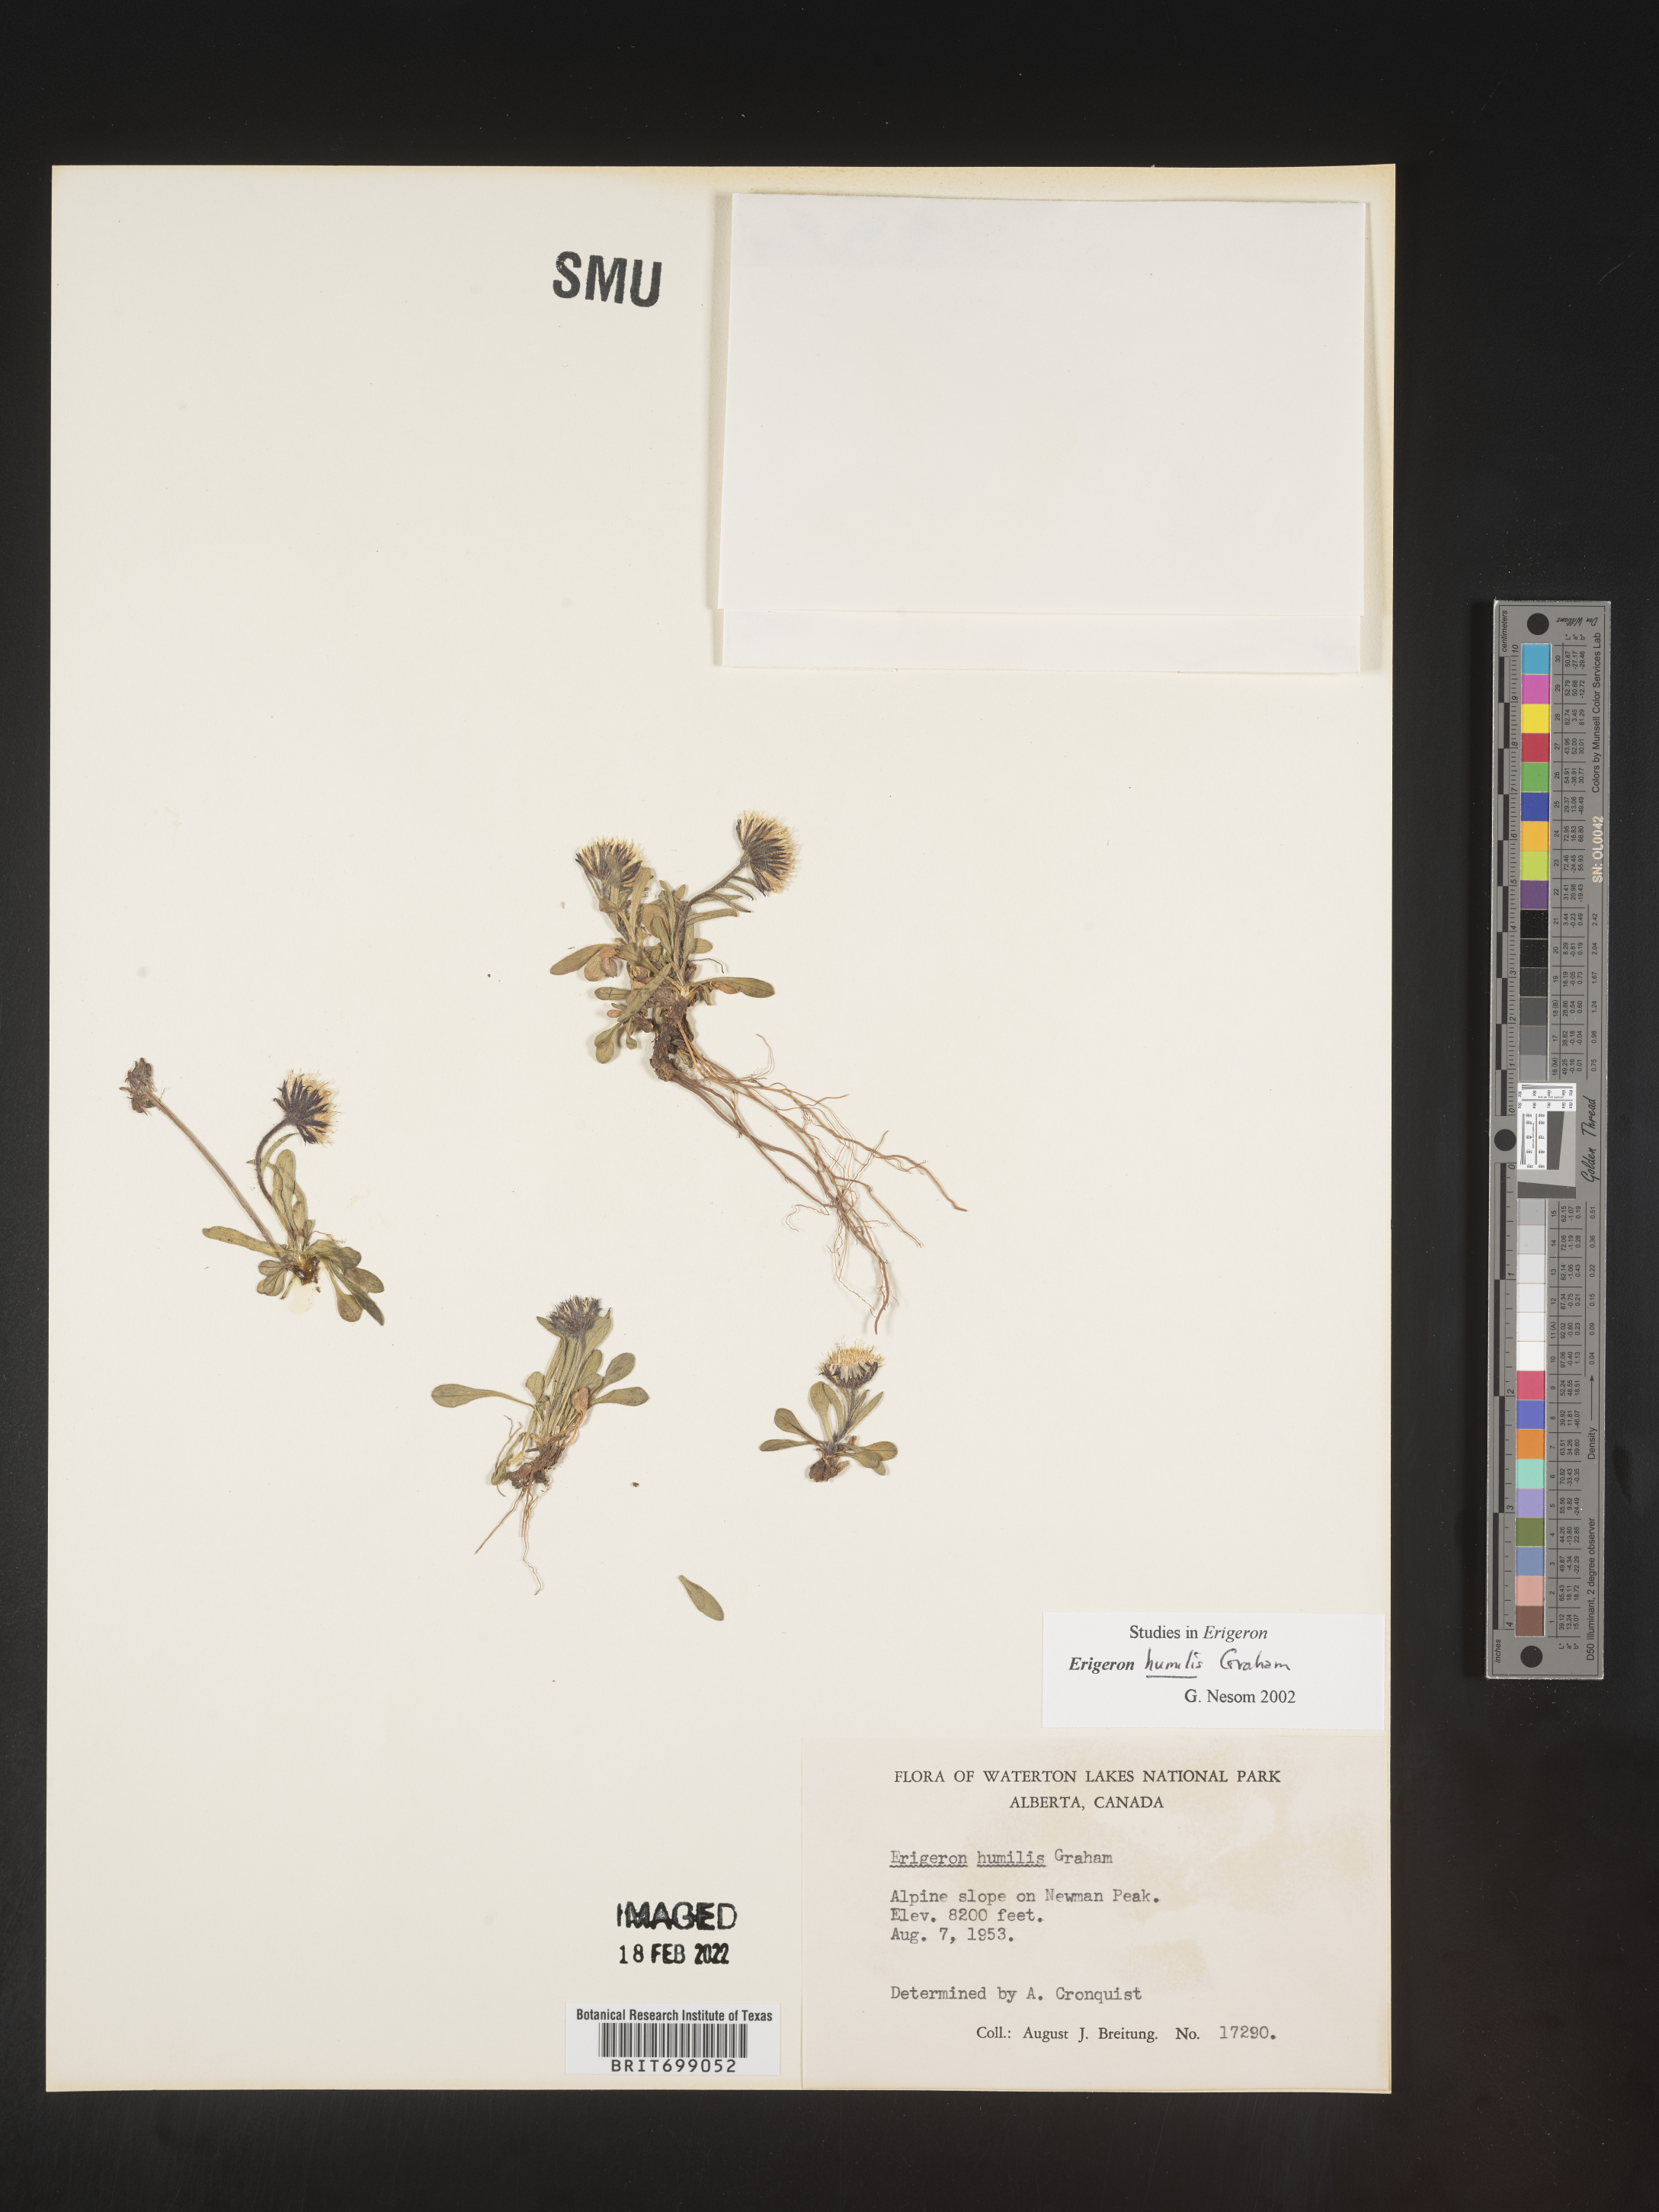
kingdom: Plantae
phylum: Tracheophyta
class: Magnoliopsida
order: Asterales
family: Asteraceae
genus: Erigeron
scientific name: Erigeron humilis
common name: Arctic-alpine fleabane
